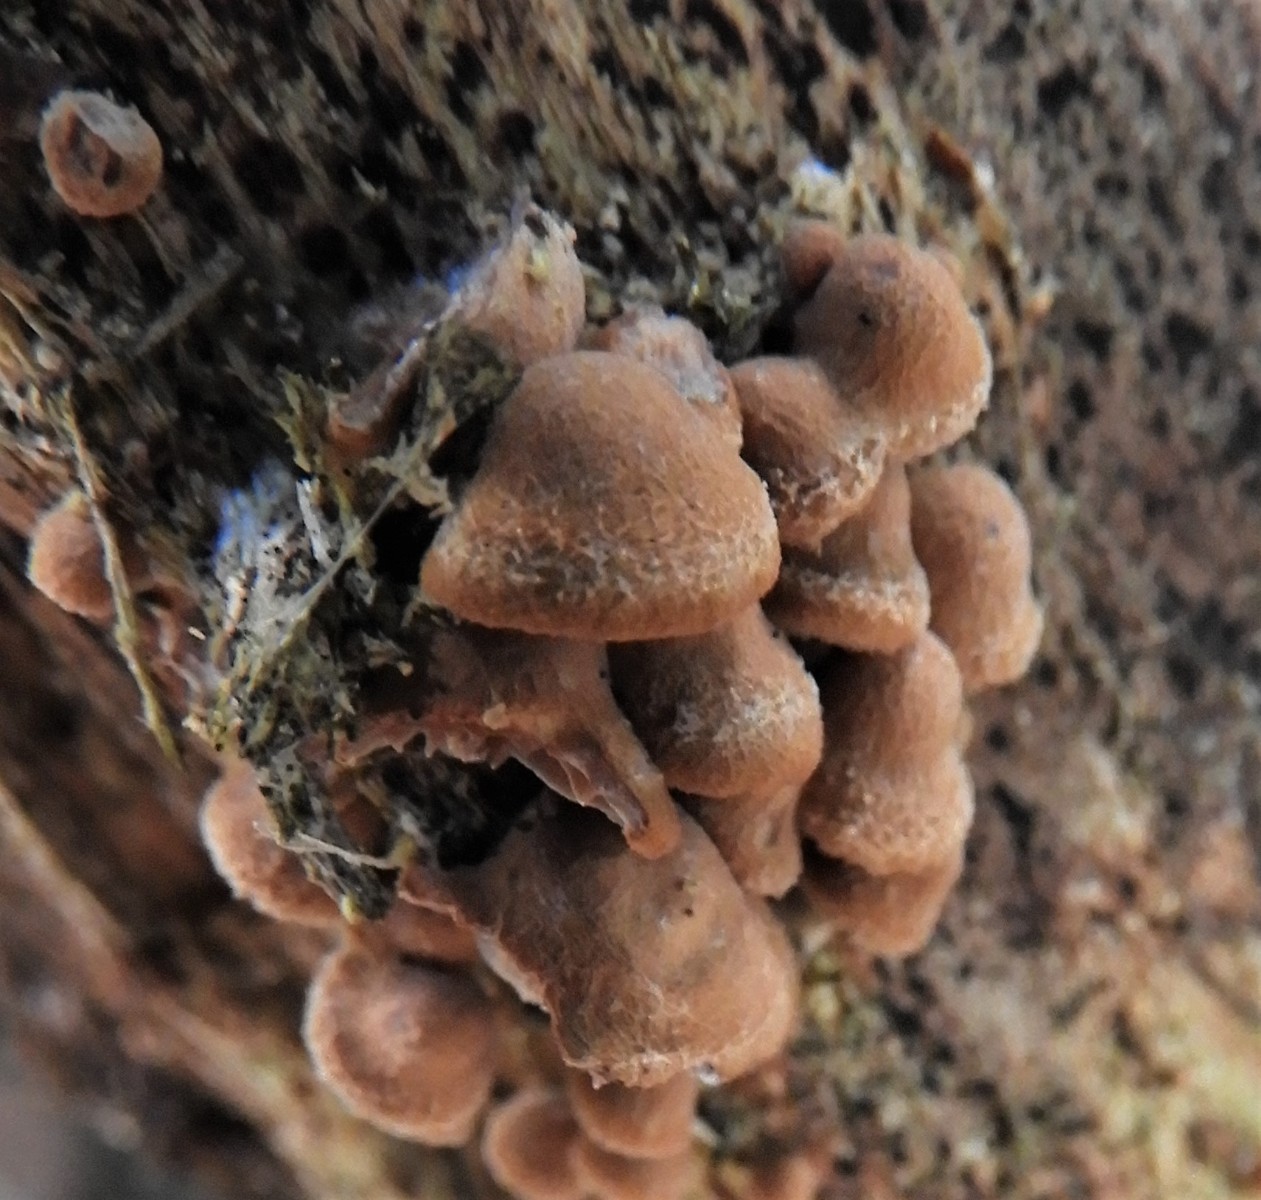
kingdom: Fungi
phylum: Basidiomycota
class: Agaricomycetes
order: Agaricales
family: Strophariaceae
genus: Deconica
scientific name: Deconica horizontalis
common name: ved-stråhat
